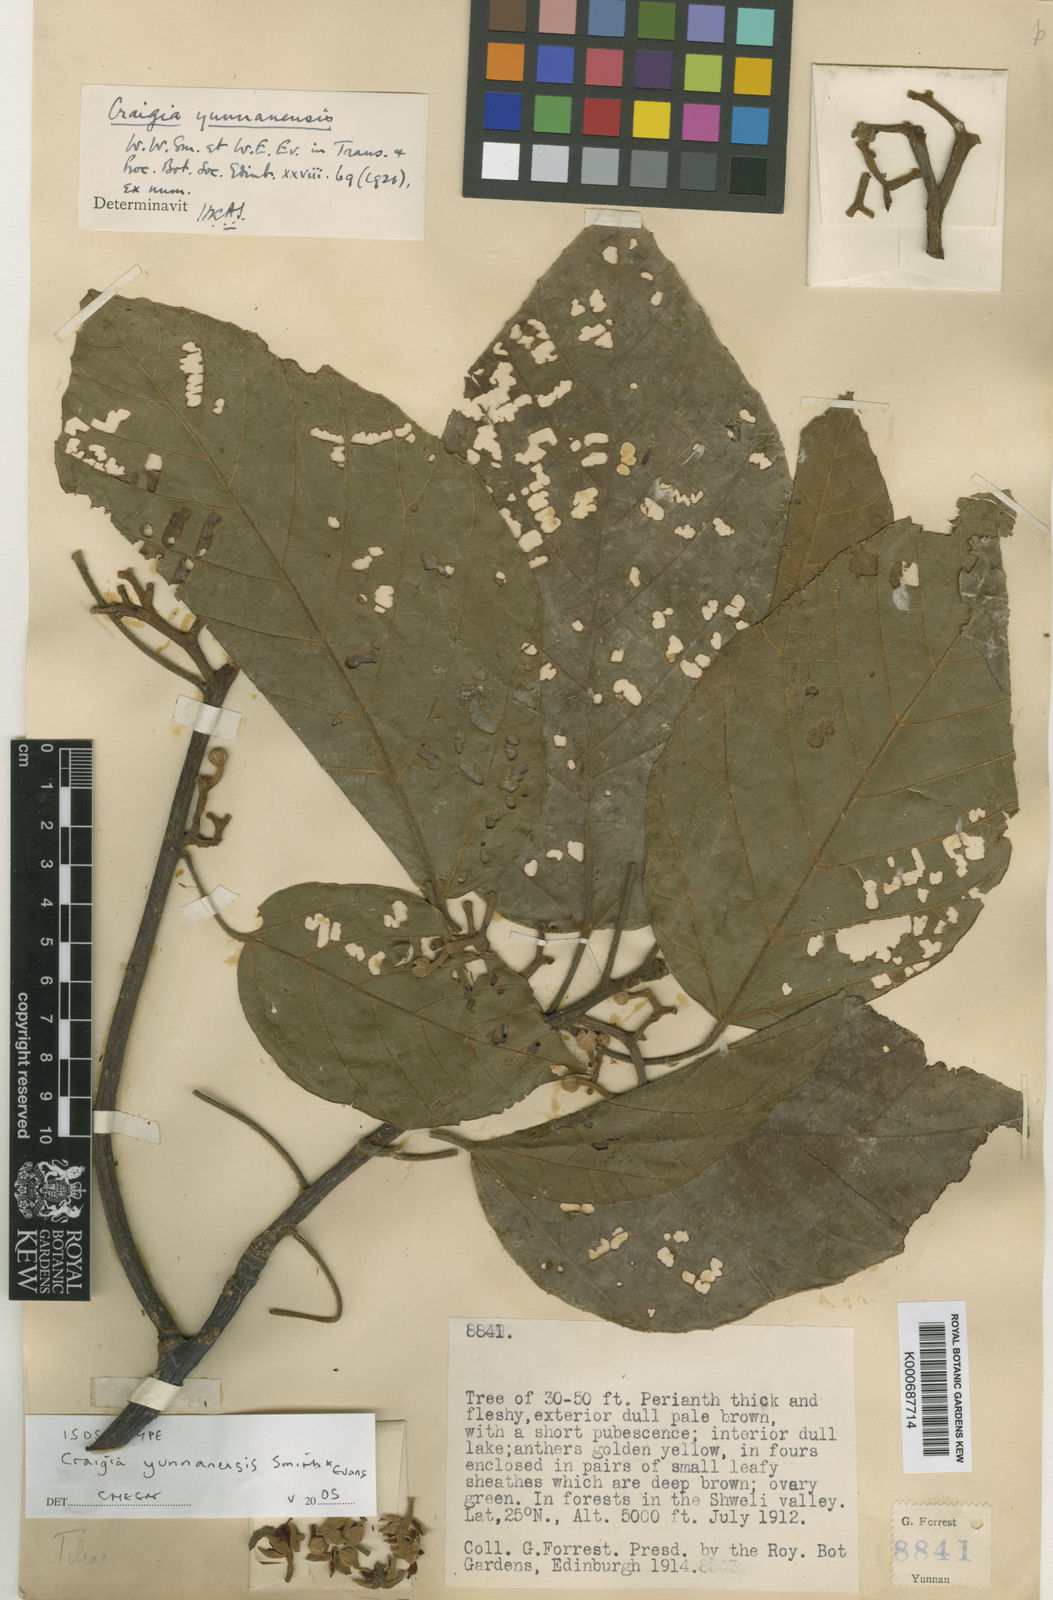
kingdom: Plantae
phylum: Tracheophyta
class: Magnoliopsida
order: Malvales
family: Malvaceae
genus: Craigia
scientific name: Craigia yunnanensis
